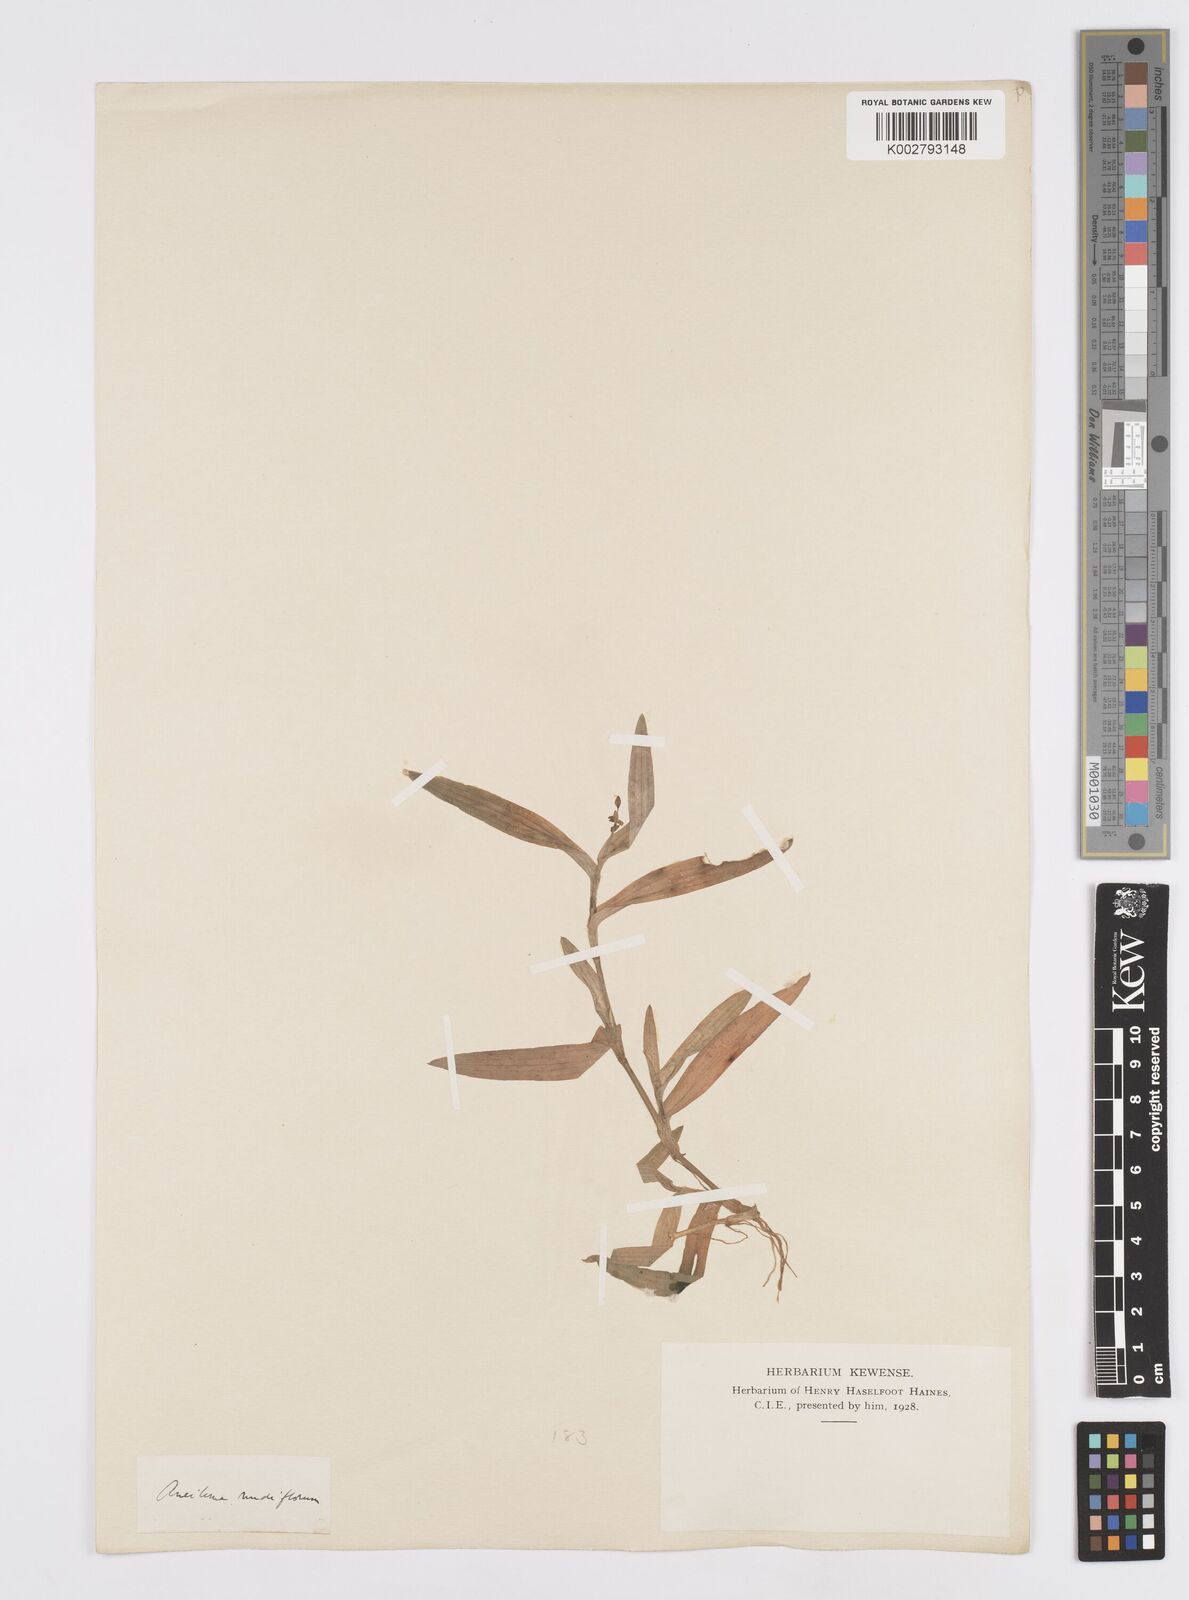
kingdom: Plantae
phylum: Tracheophyta
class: Liliopsida
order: Commelinales
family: Commelinaceae
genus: Murdannia
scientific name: Murdannia nudiflora
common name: Nakedstem dewflower
